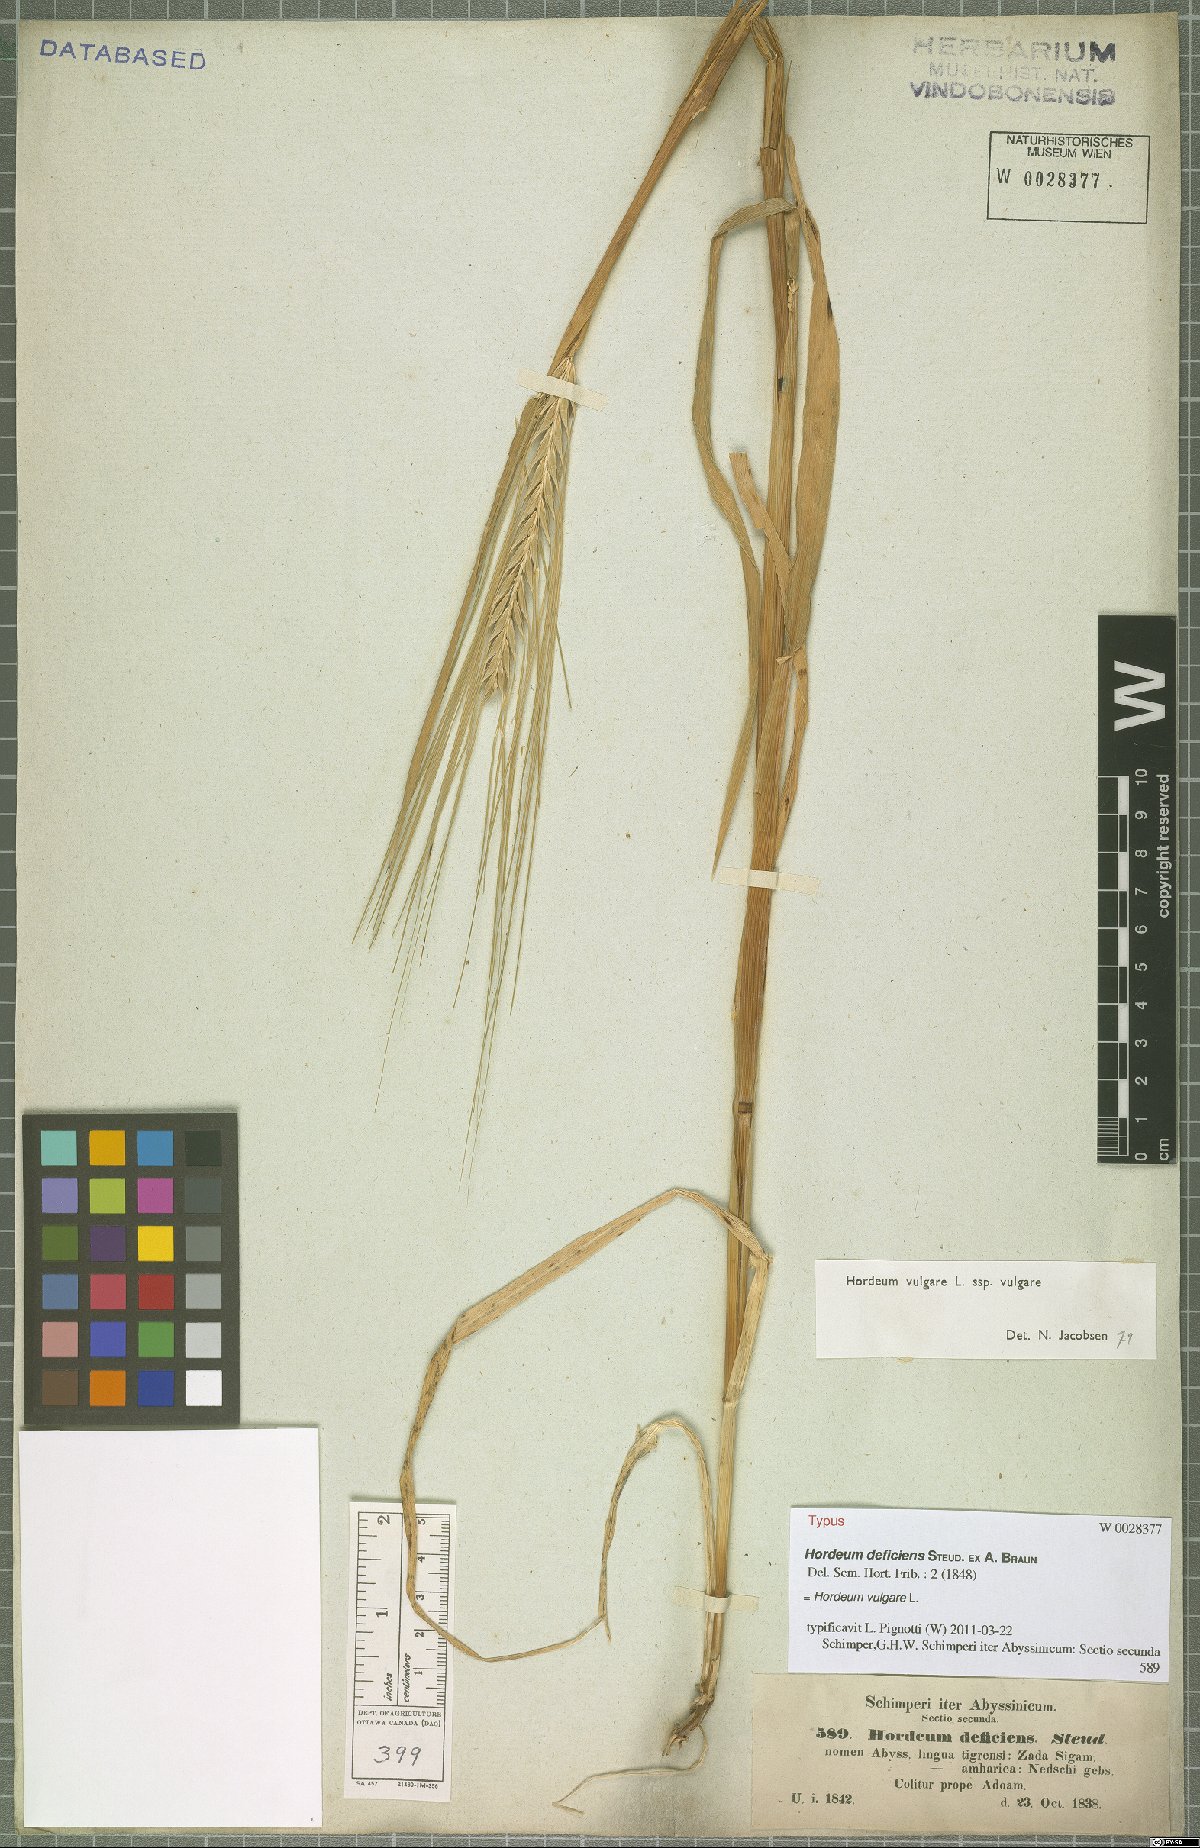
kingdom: Plantae
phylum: Tracheophyta
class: Liliopsida
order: Poales
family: Poaceae
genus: Hordeum
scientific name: Hordeum vulgare
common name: Common barley
